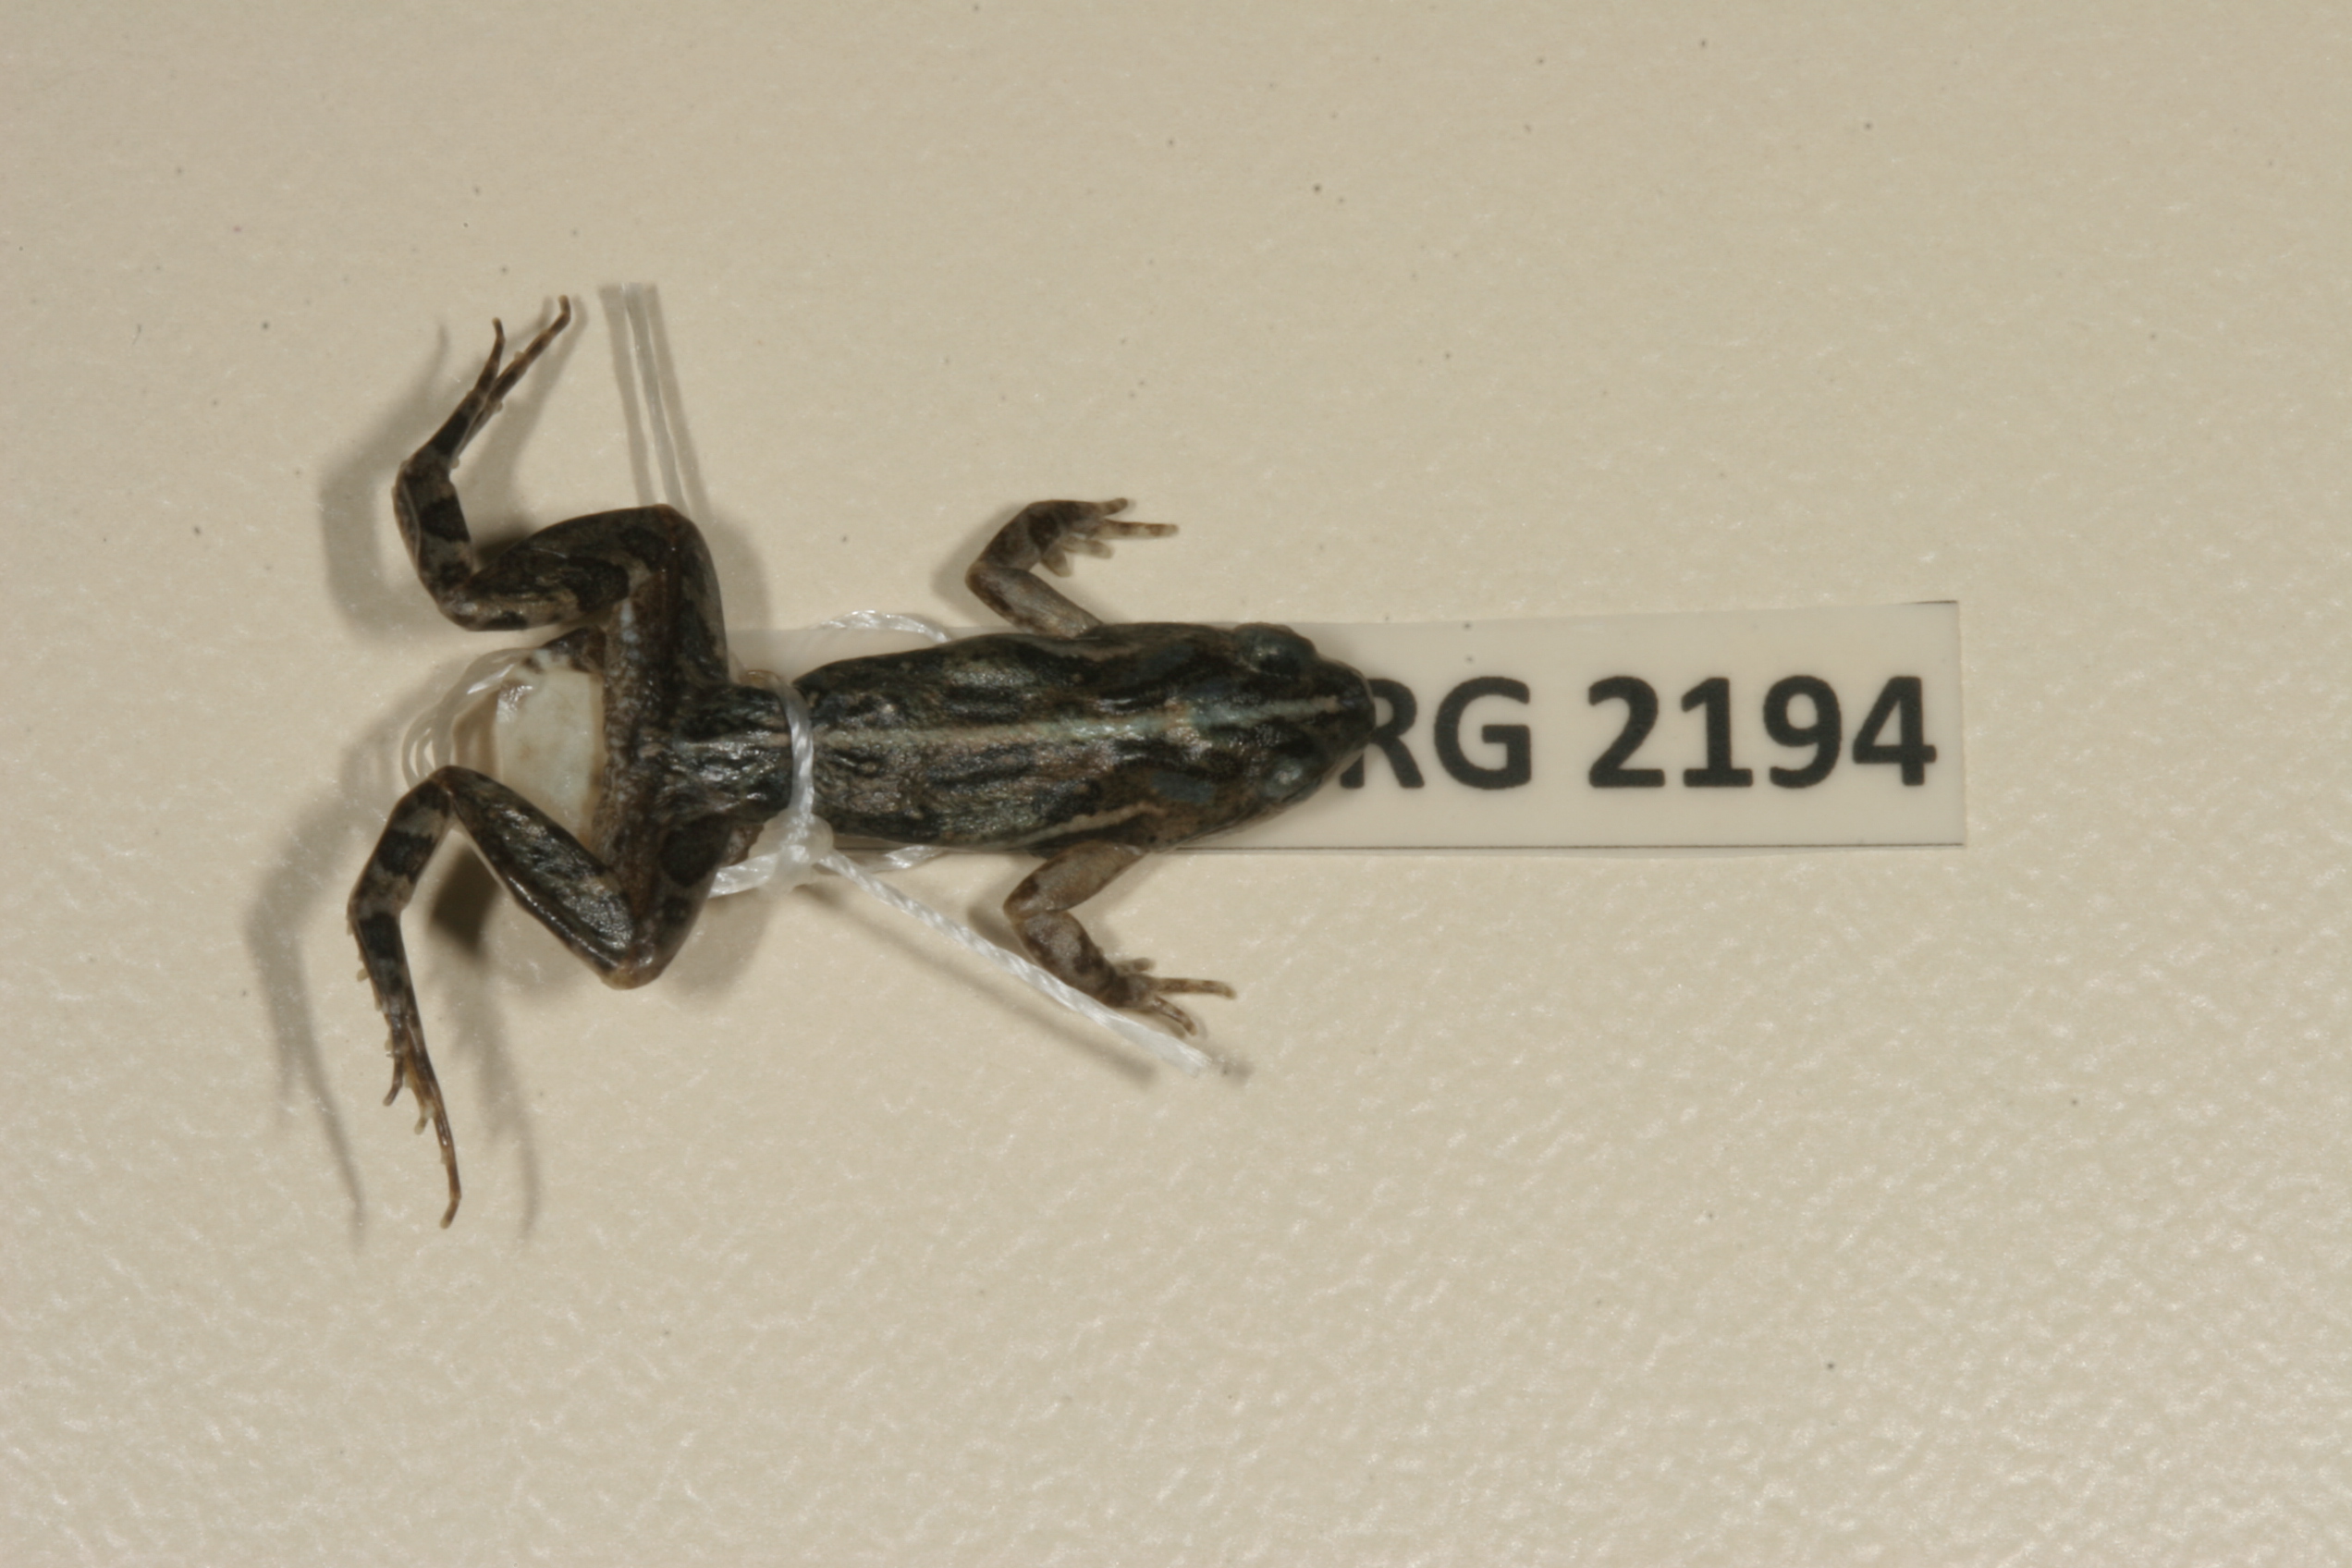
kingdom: Animalia
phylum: Chordata
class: Amphibia
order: Anura
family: Pyxicephalidae
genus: Cacosternum
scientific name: Cacosternum boettgeri
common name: Boettger's frog
